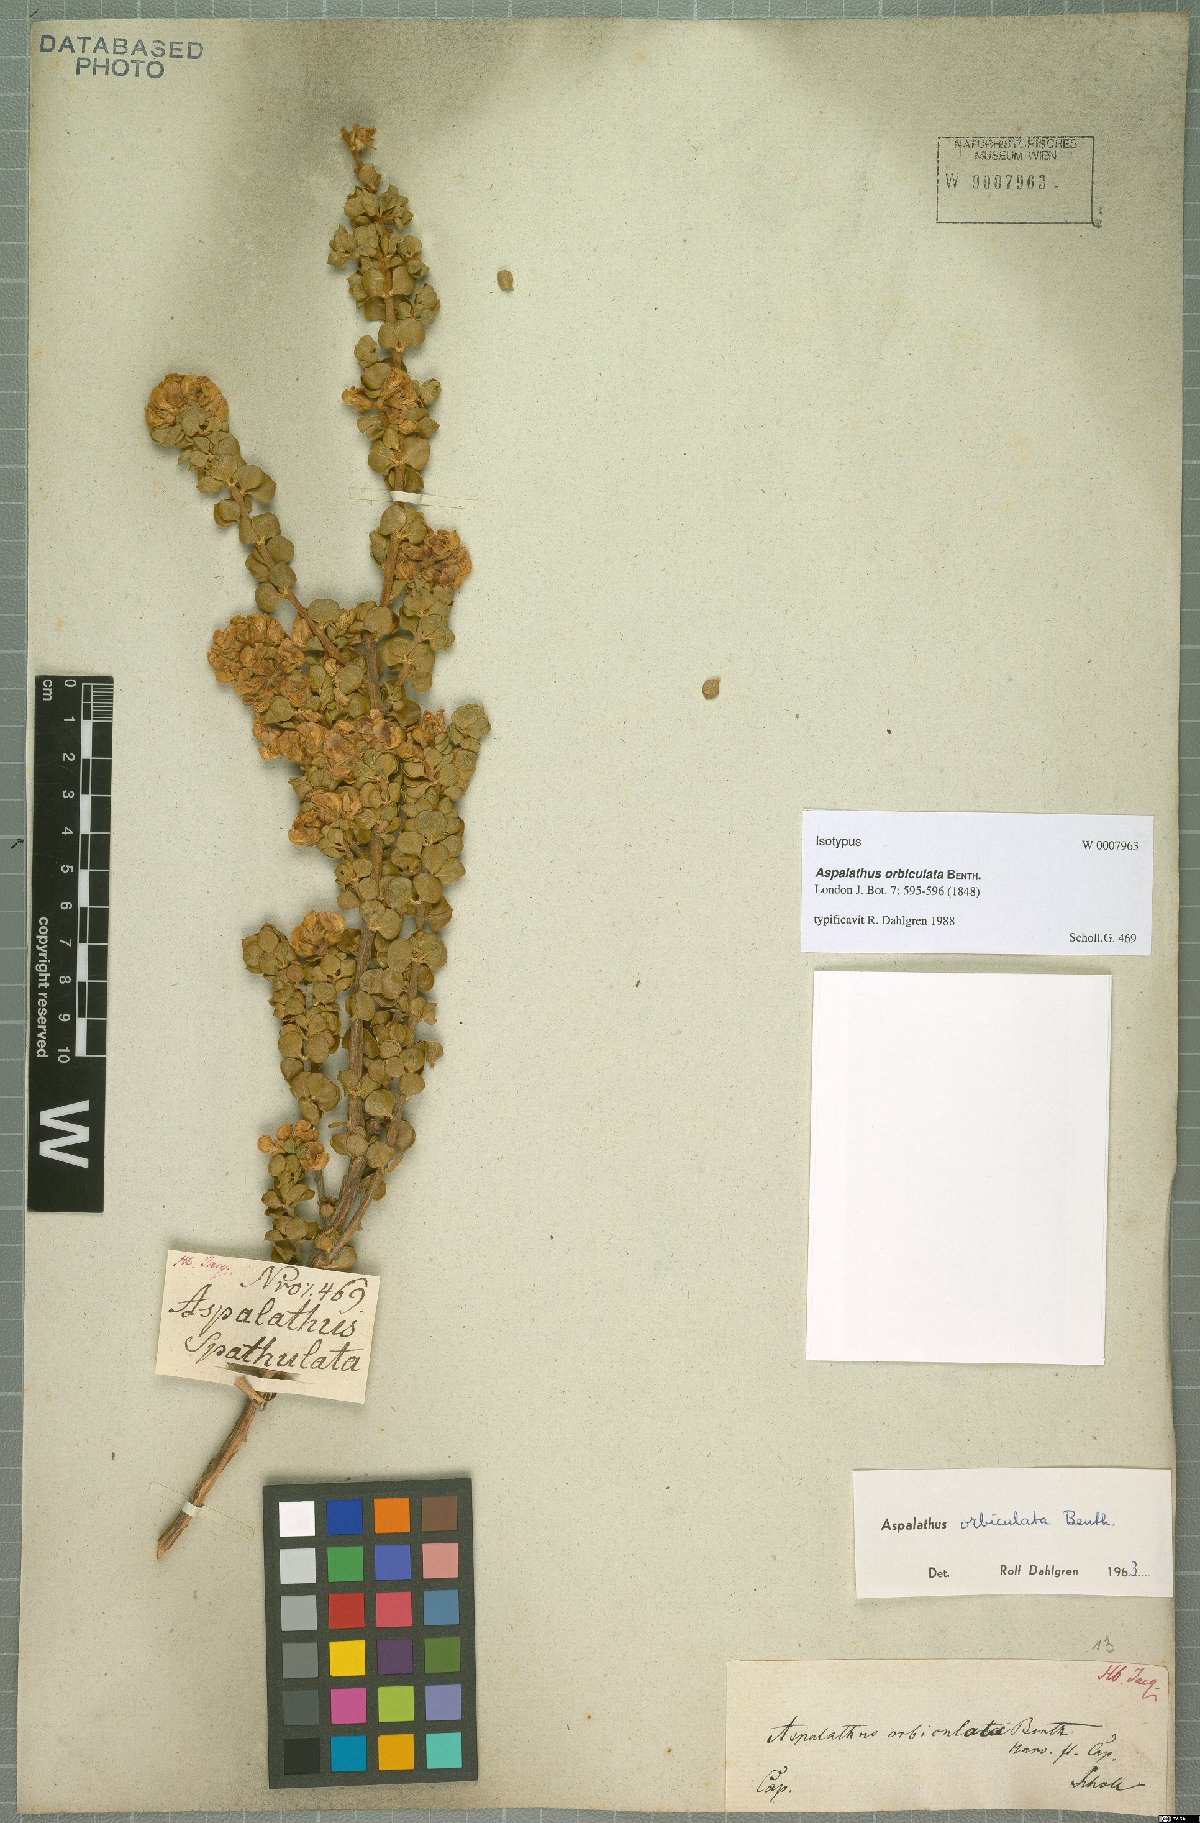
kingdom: Plantae
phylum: Tracheophyta
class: Magnoliopsida
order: Fabales
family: Fabaceae
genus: Aspalathus
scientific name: Aspalathus orbiculata
